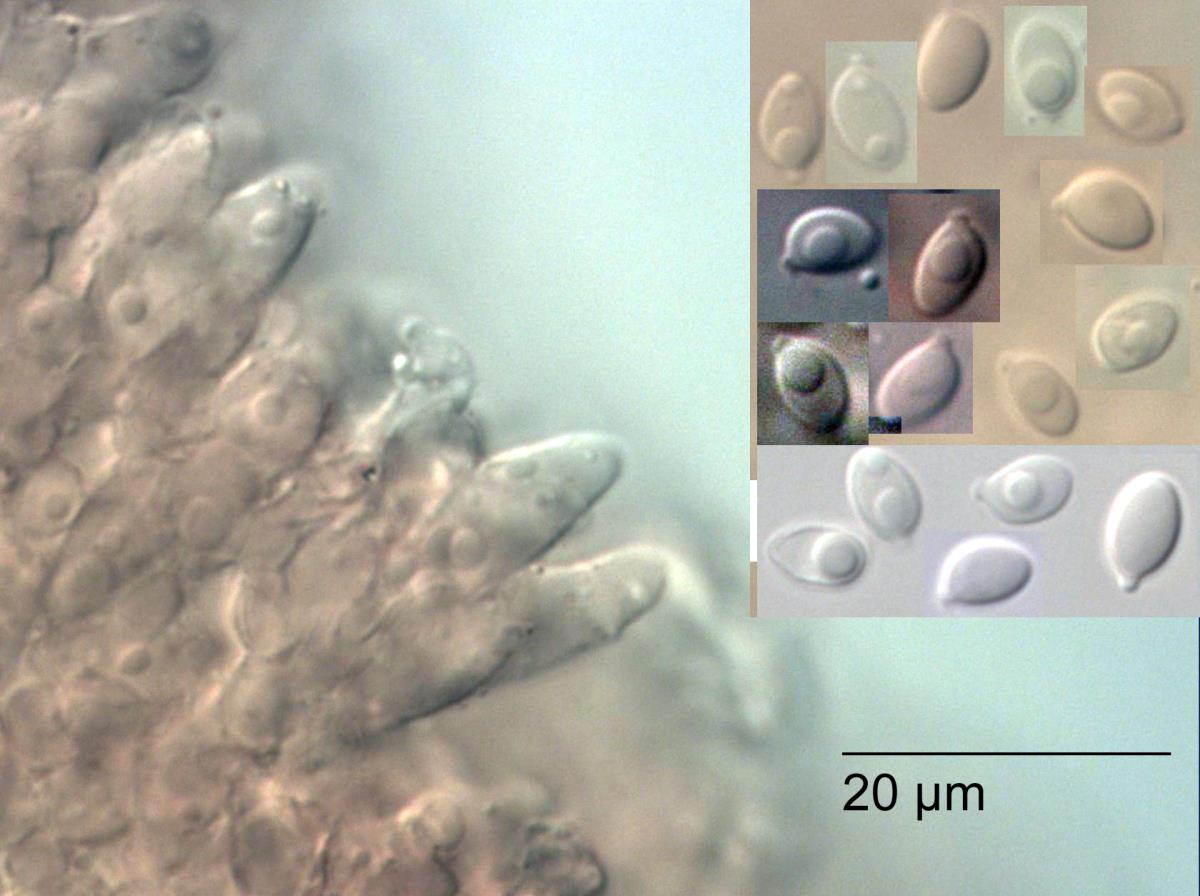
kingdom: Fungi
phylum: Basidiomycota
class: Agaricomycetes
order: Agaricales
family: Omphalotaceae
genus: Marasmiellus
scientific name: Marasmiellus
